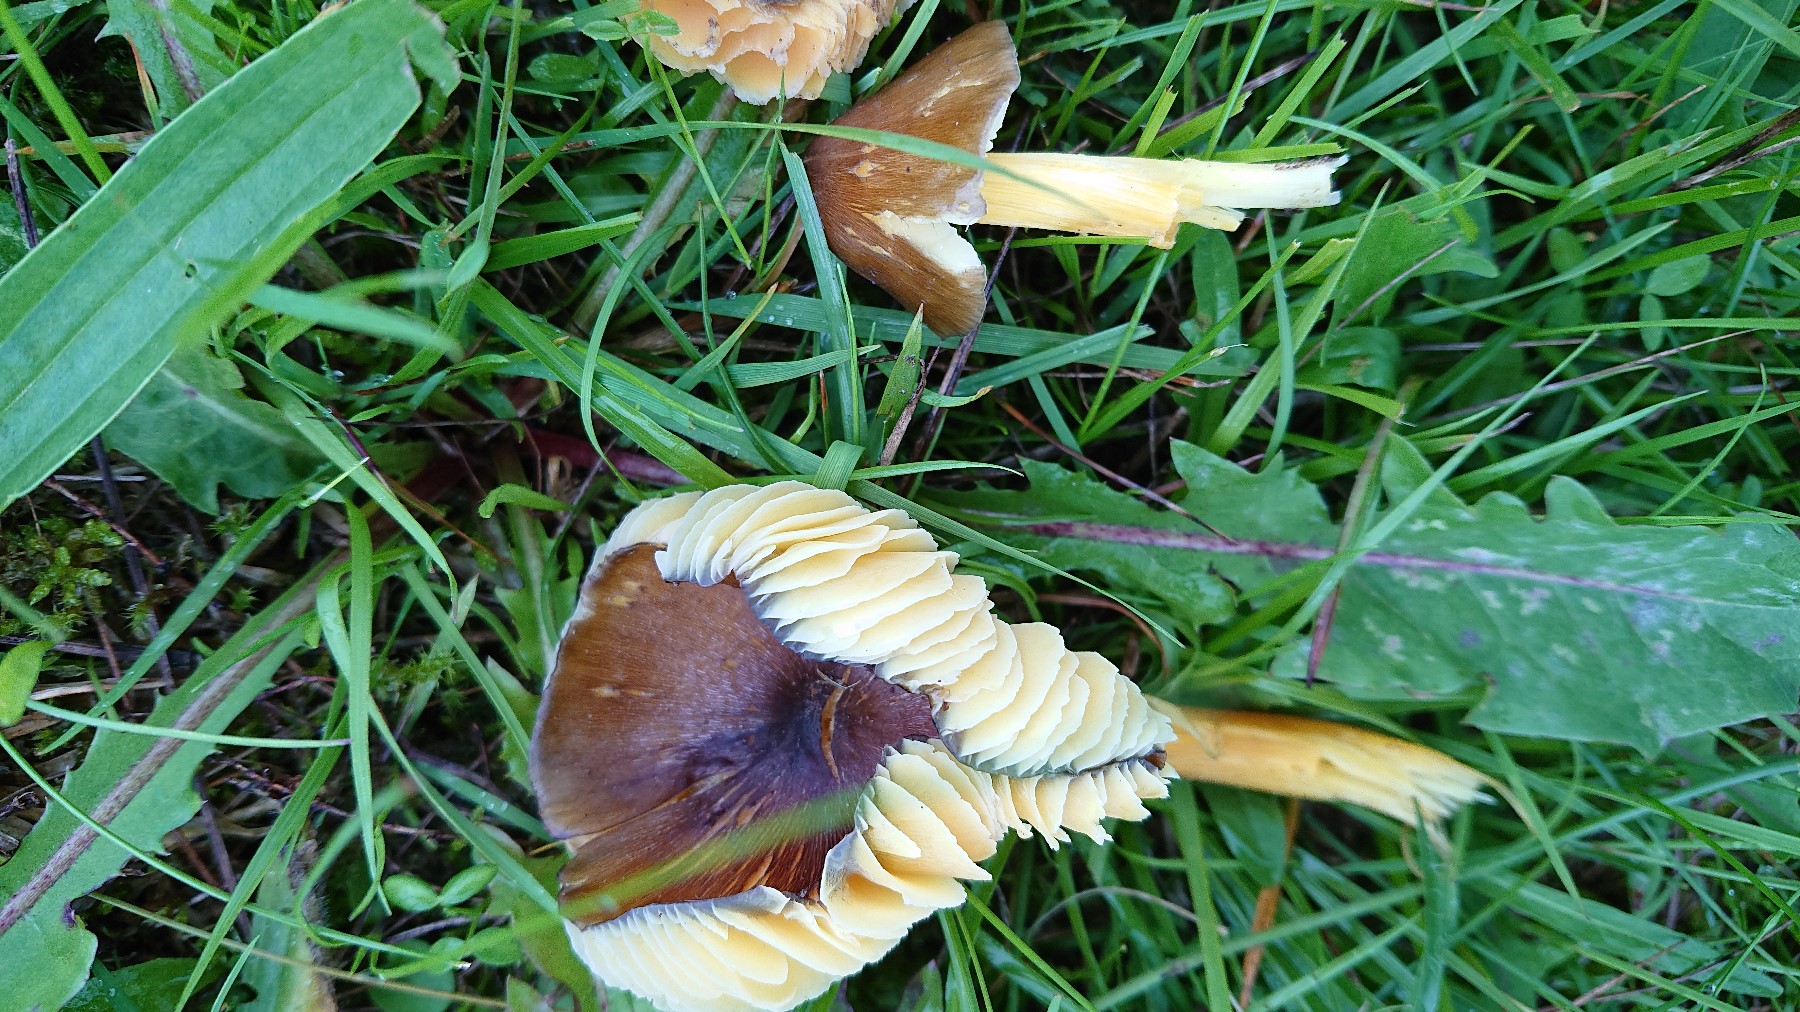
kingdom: Fungi
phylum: Basidiomycota
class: Agaricomycetes
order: Agaricales
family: Hygrophoraceae
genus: Hygrocybe
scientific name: Hygrocybe spadicea
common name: daddelbrun vokshat
